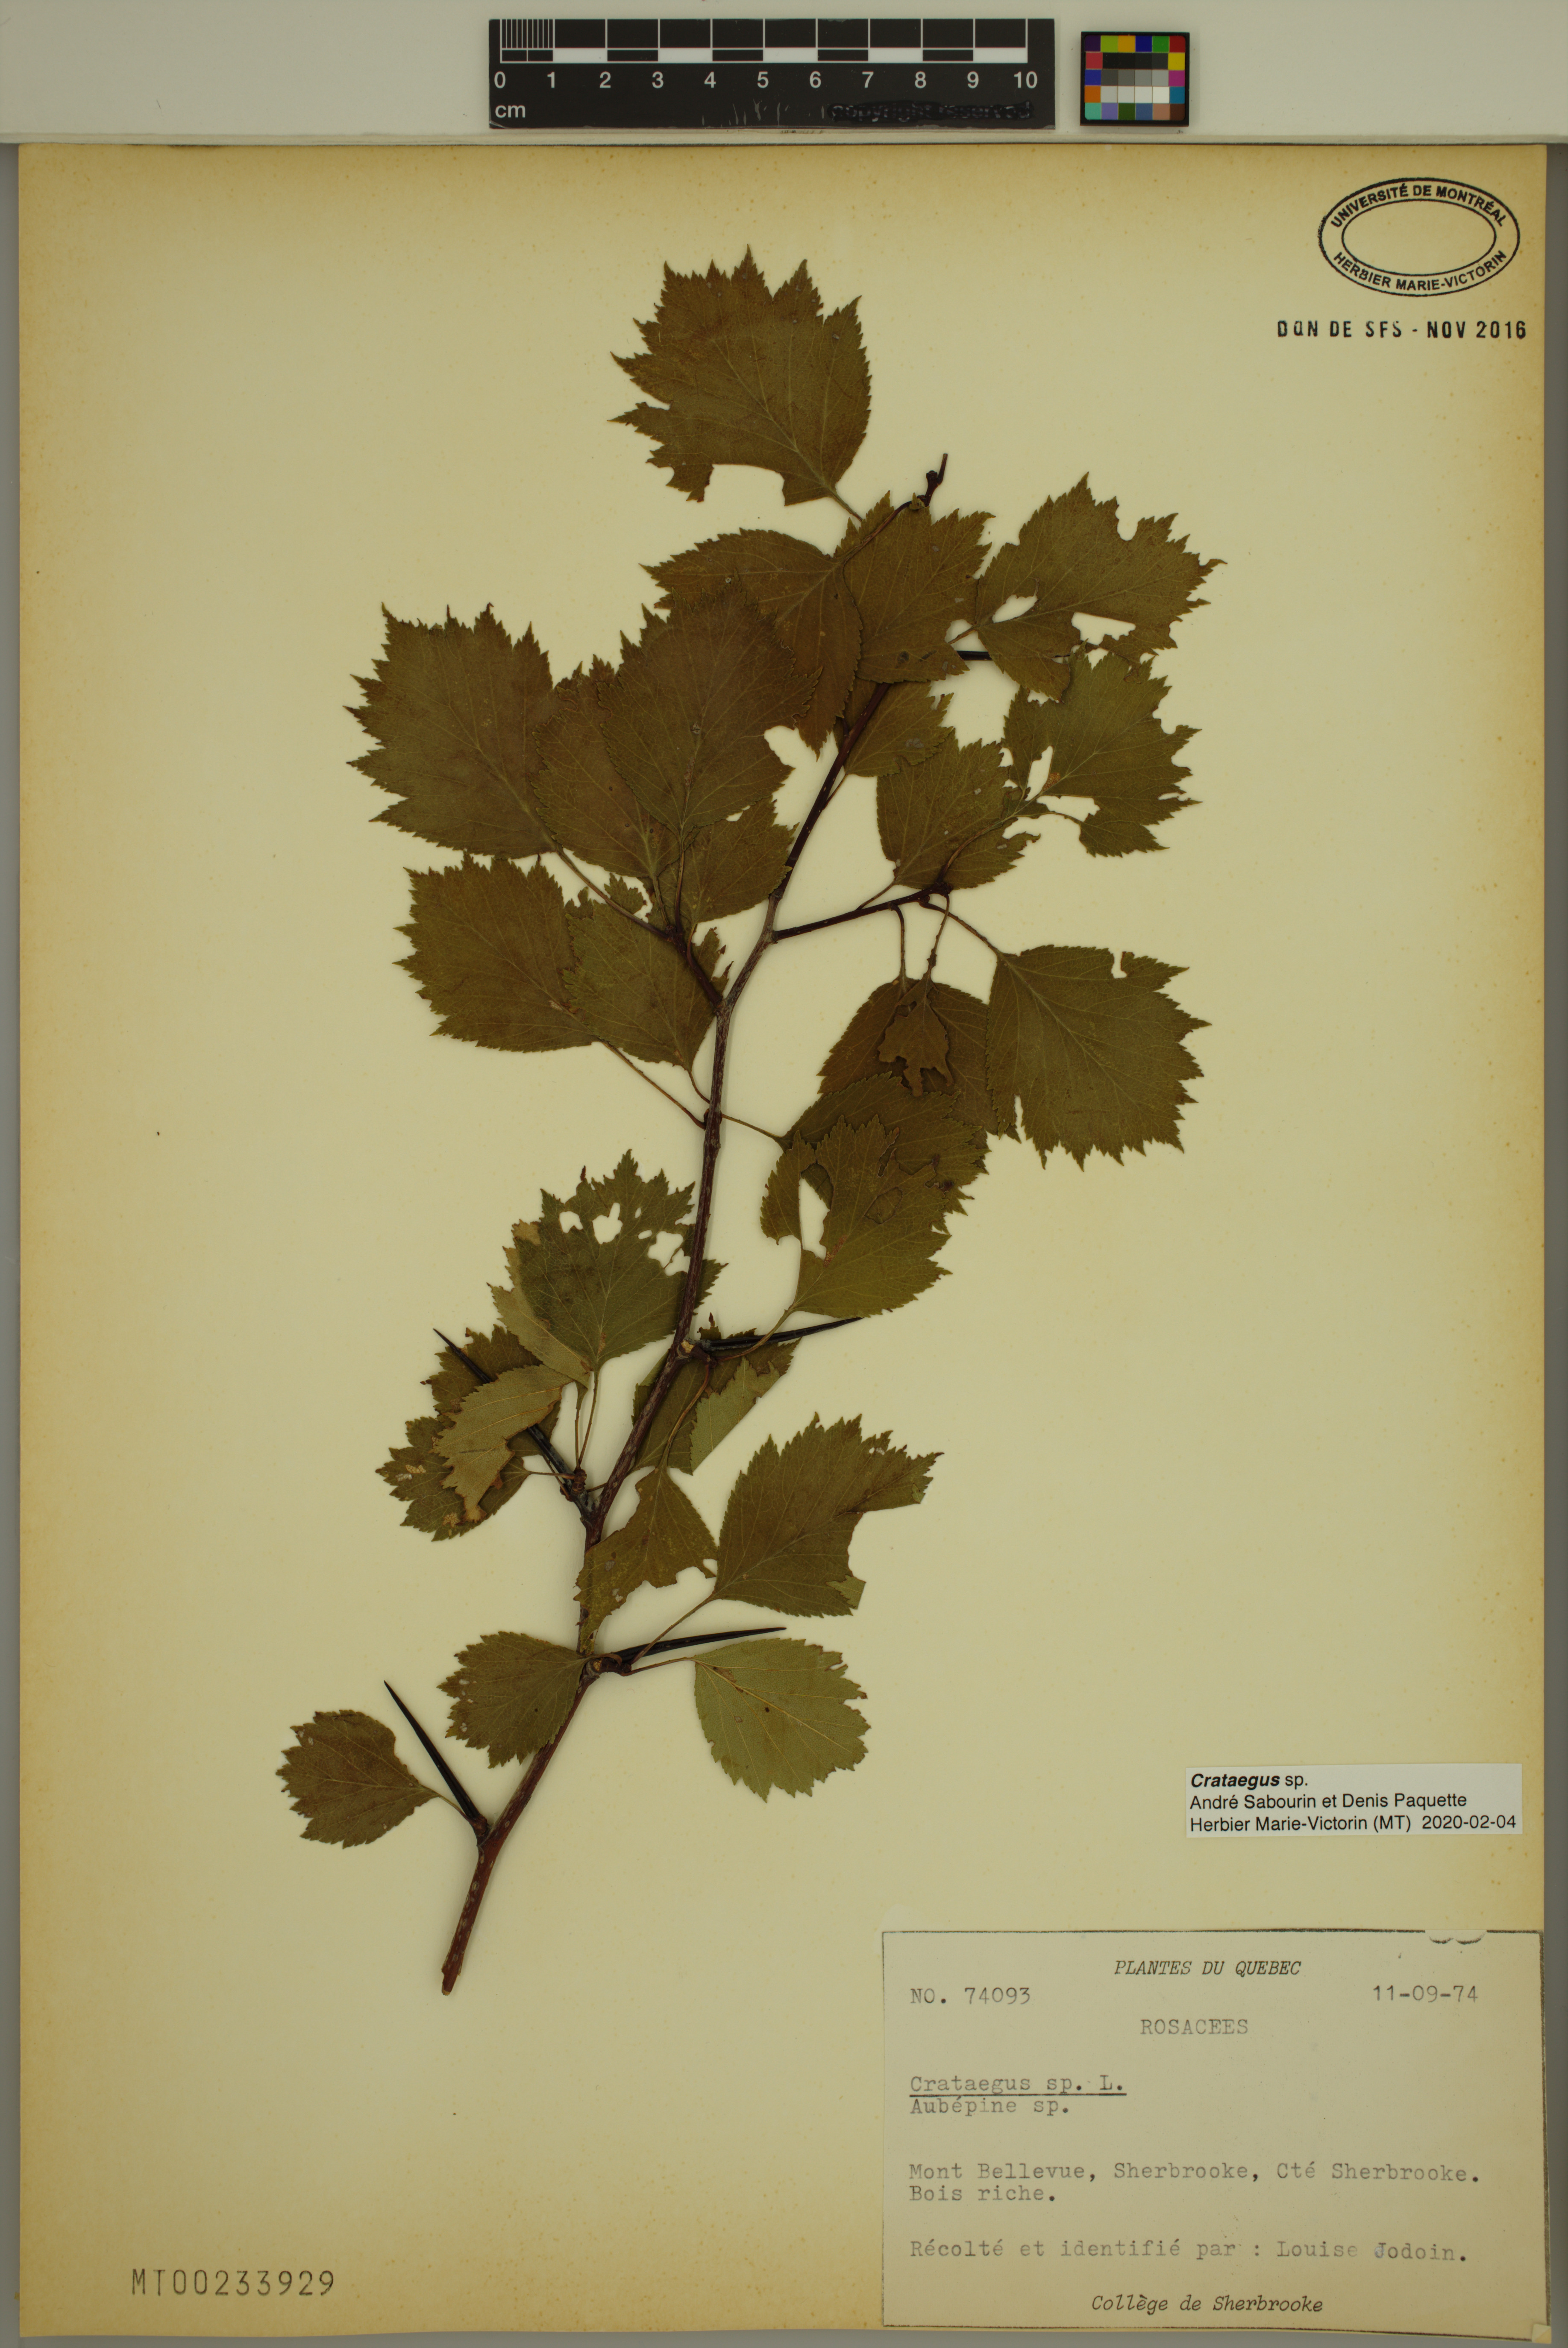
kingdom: Plantae
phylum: Tracheophyta
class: Magnoliopsida
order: Rosales
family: Rosaceae
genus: Crataegus
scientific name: Crataegus
